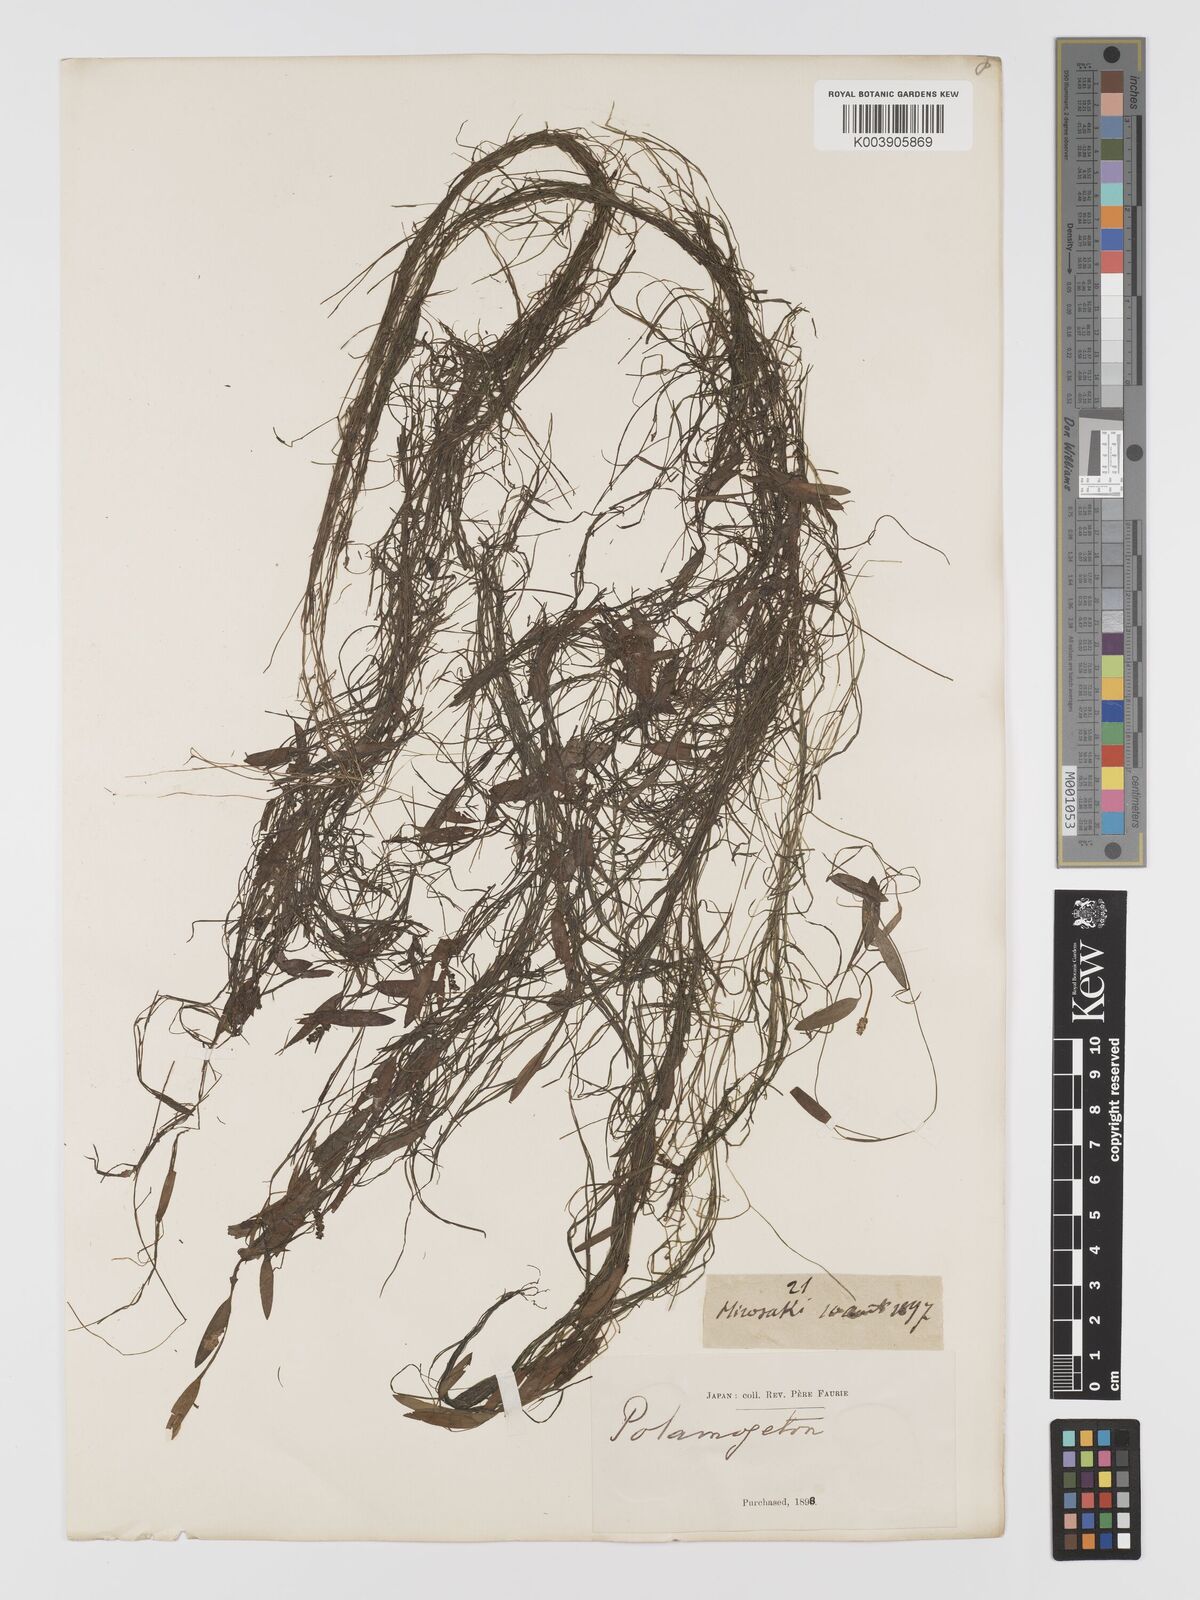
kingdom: Plantae
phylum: Tracheophyta
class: Liliopsida
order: Alismatales
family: Potamogetonaceae
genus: Potamogeton
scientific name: Potamogeton octandrus
